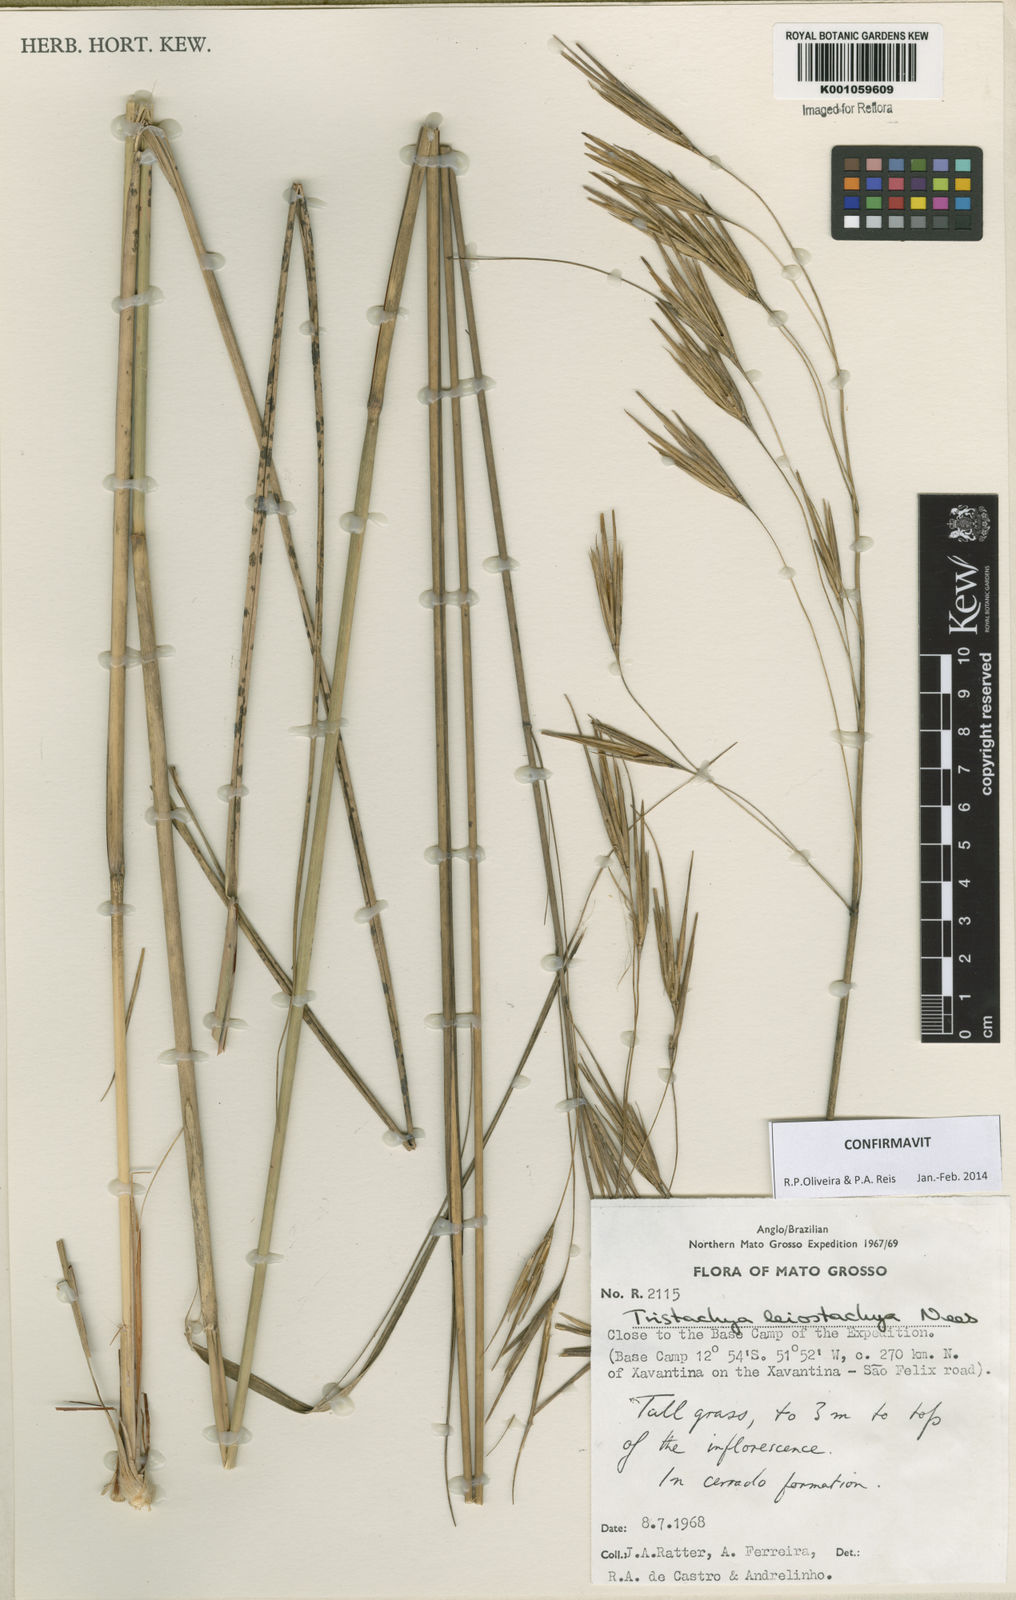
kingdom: Plantae
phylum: Tracheophyta
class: Liliopsida
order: Poales
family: Poaceae
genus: Tristachya
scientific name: Tristachya leiostachya
